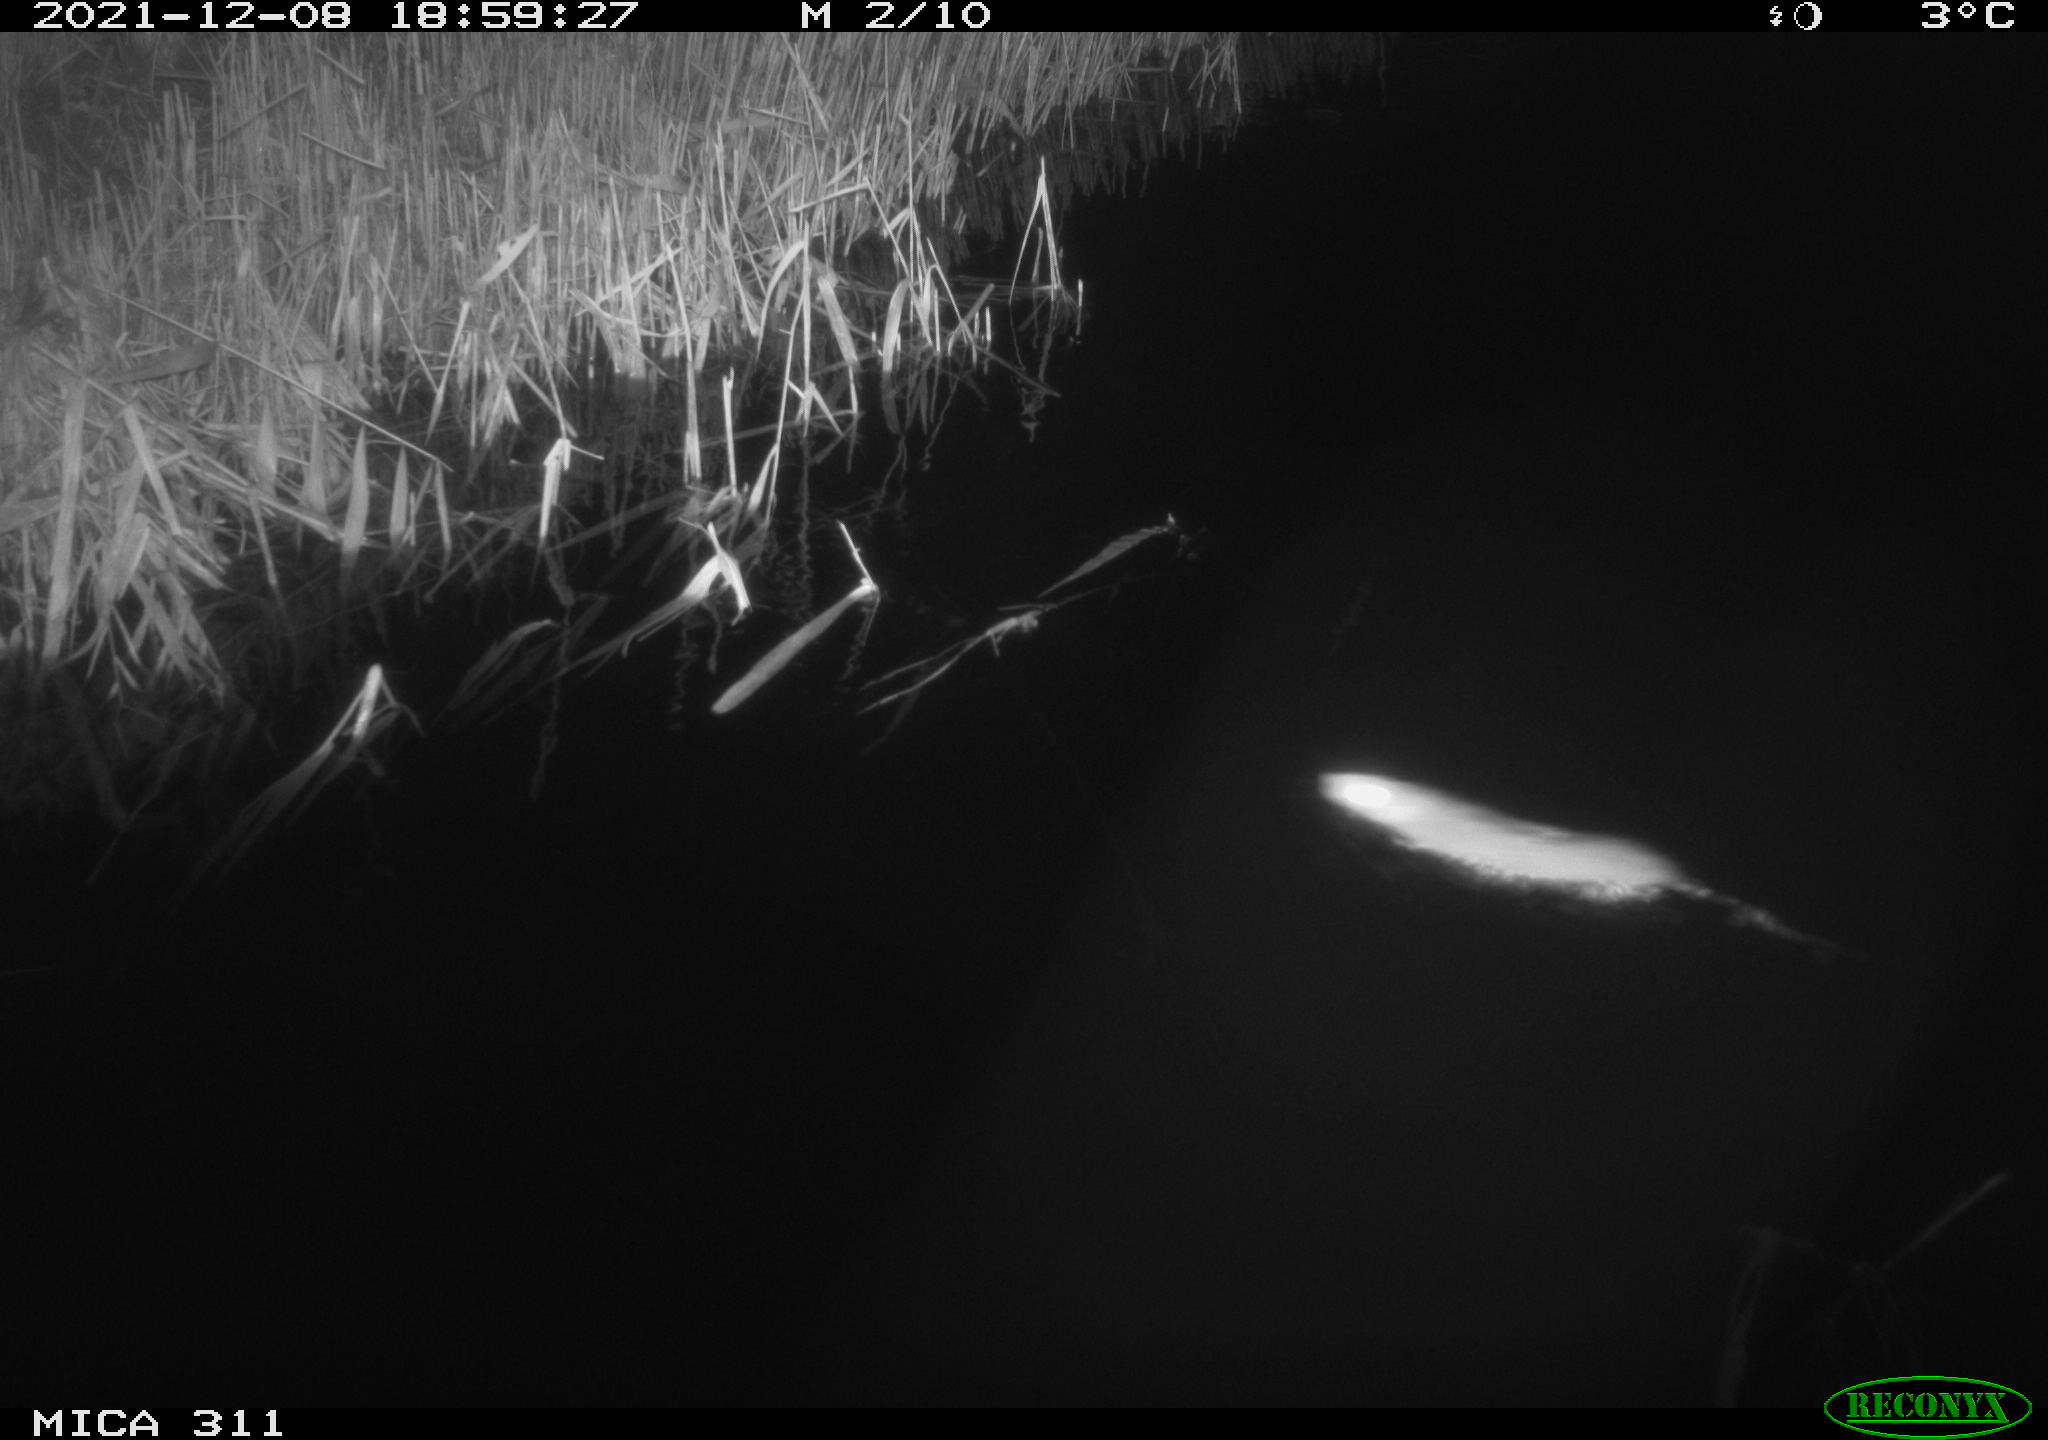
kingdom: Animalia
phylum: Chordata
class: Mammalia
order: Rodentia
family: Muridae
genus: Rattus
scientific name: Rattus norvegicus
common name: Brown rat
